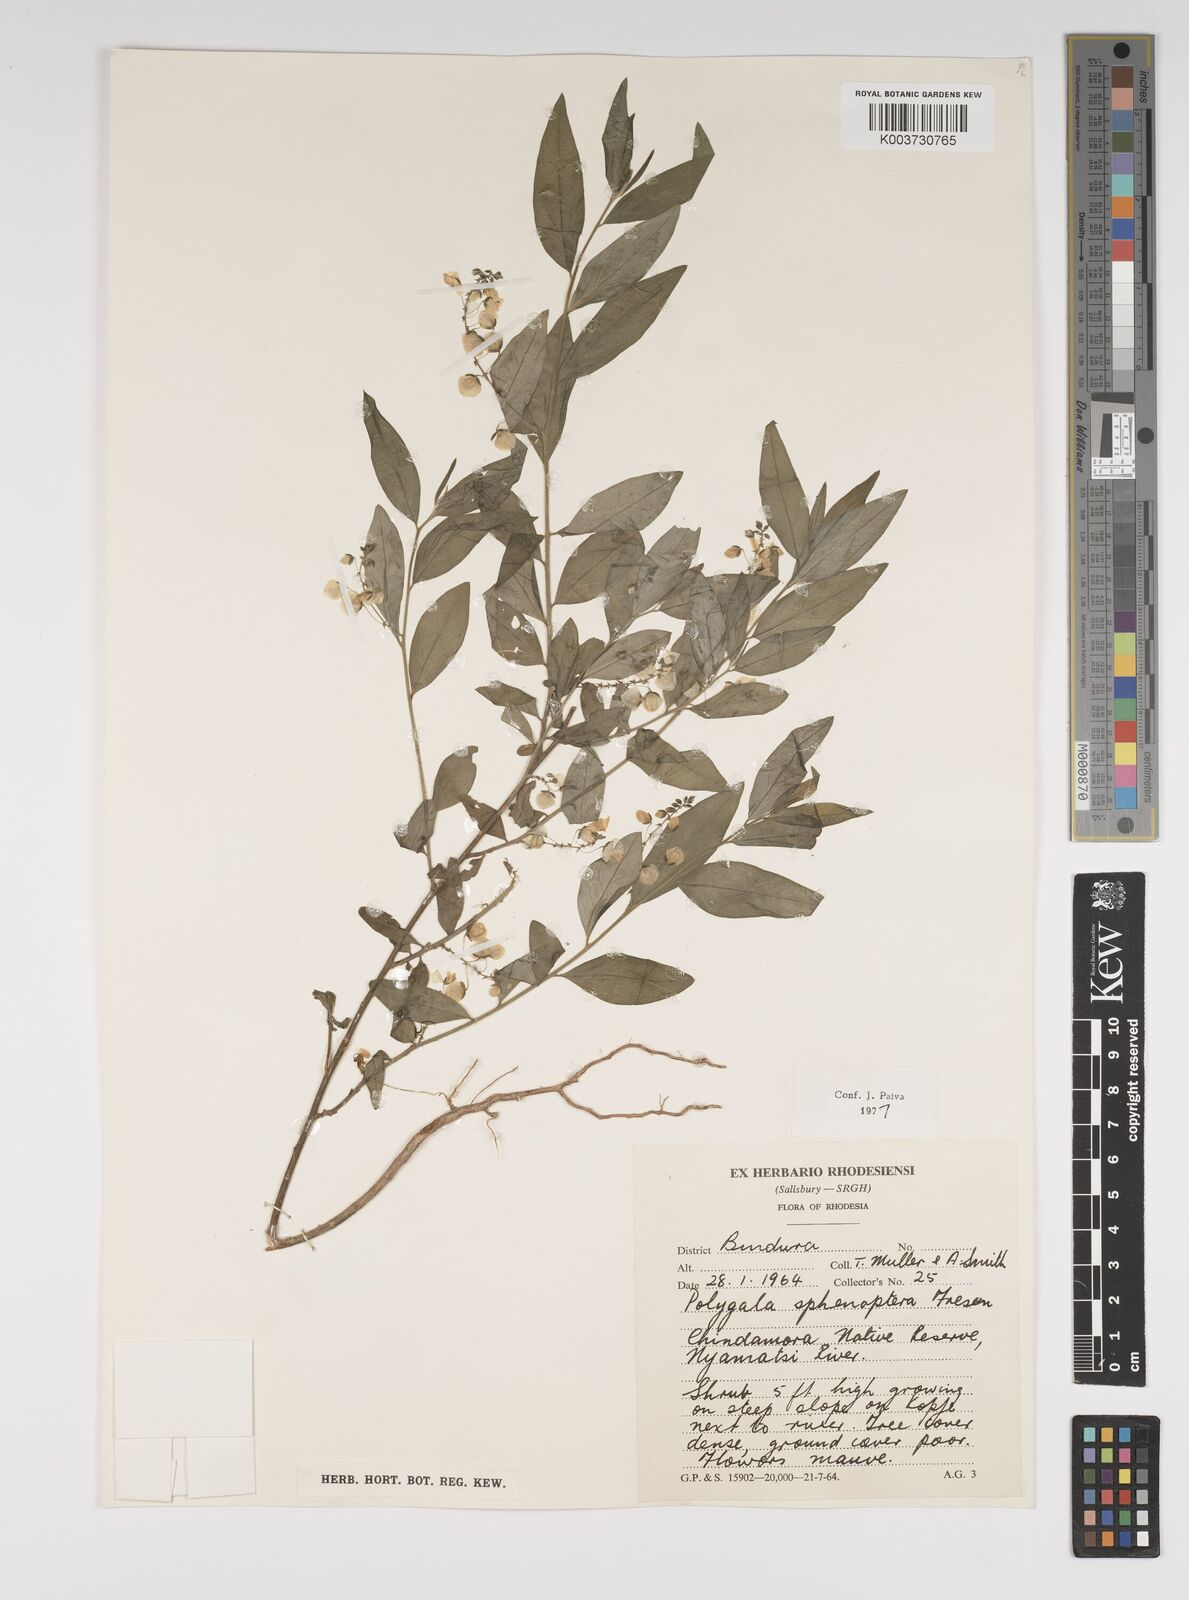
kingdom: Plantae
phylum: Tracheophyta
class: Magnoliopsida
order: Fabales
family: Polygalaceae
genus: Polygala
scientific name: Polygala sphenoptera
